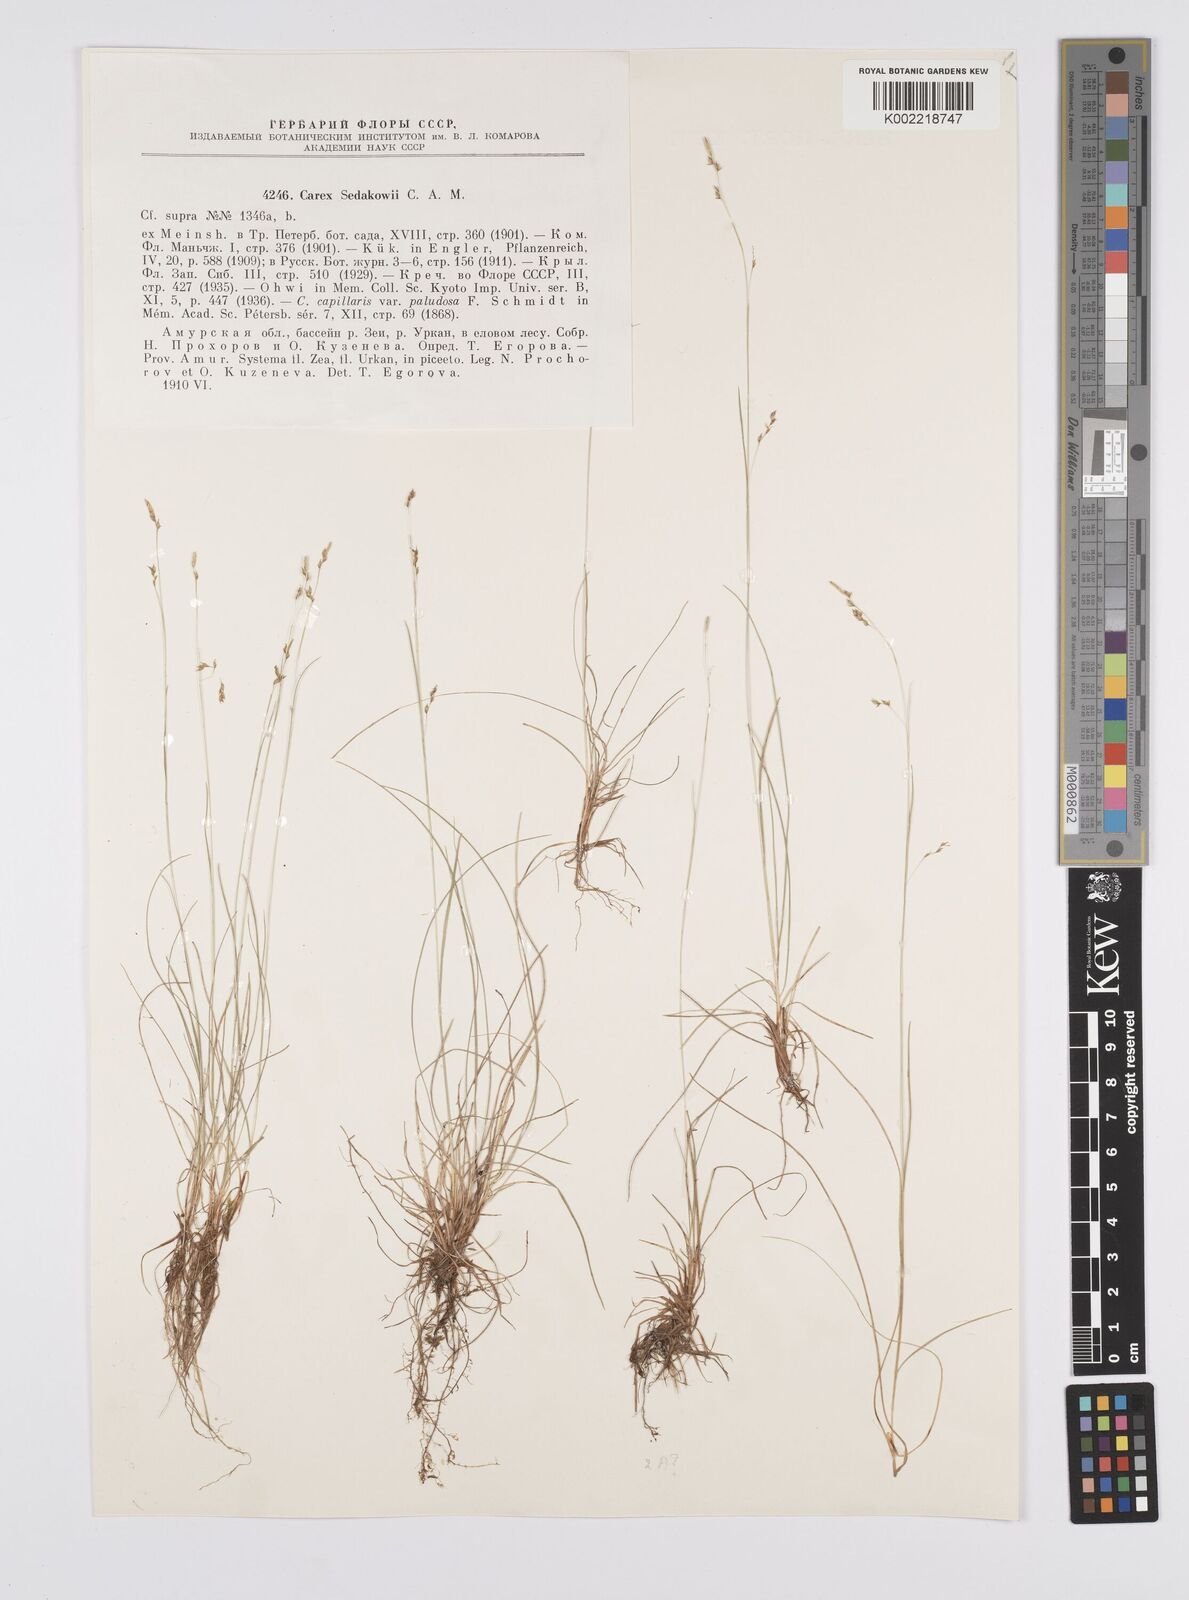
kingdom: Plantae
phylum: Tracheophyta
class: Liliopsida
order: Poales
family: Cyperaceae
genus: Carex
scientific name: Carex sedakowii
